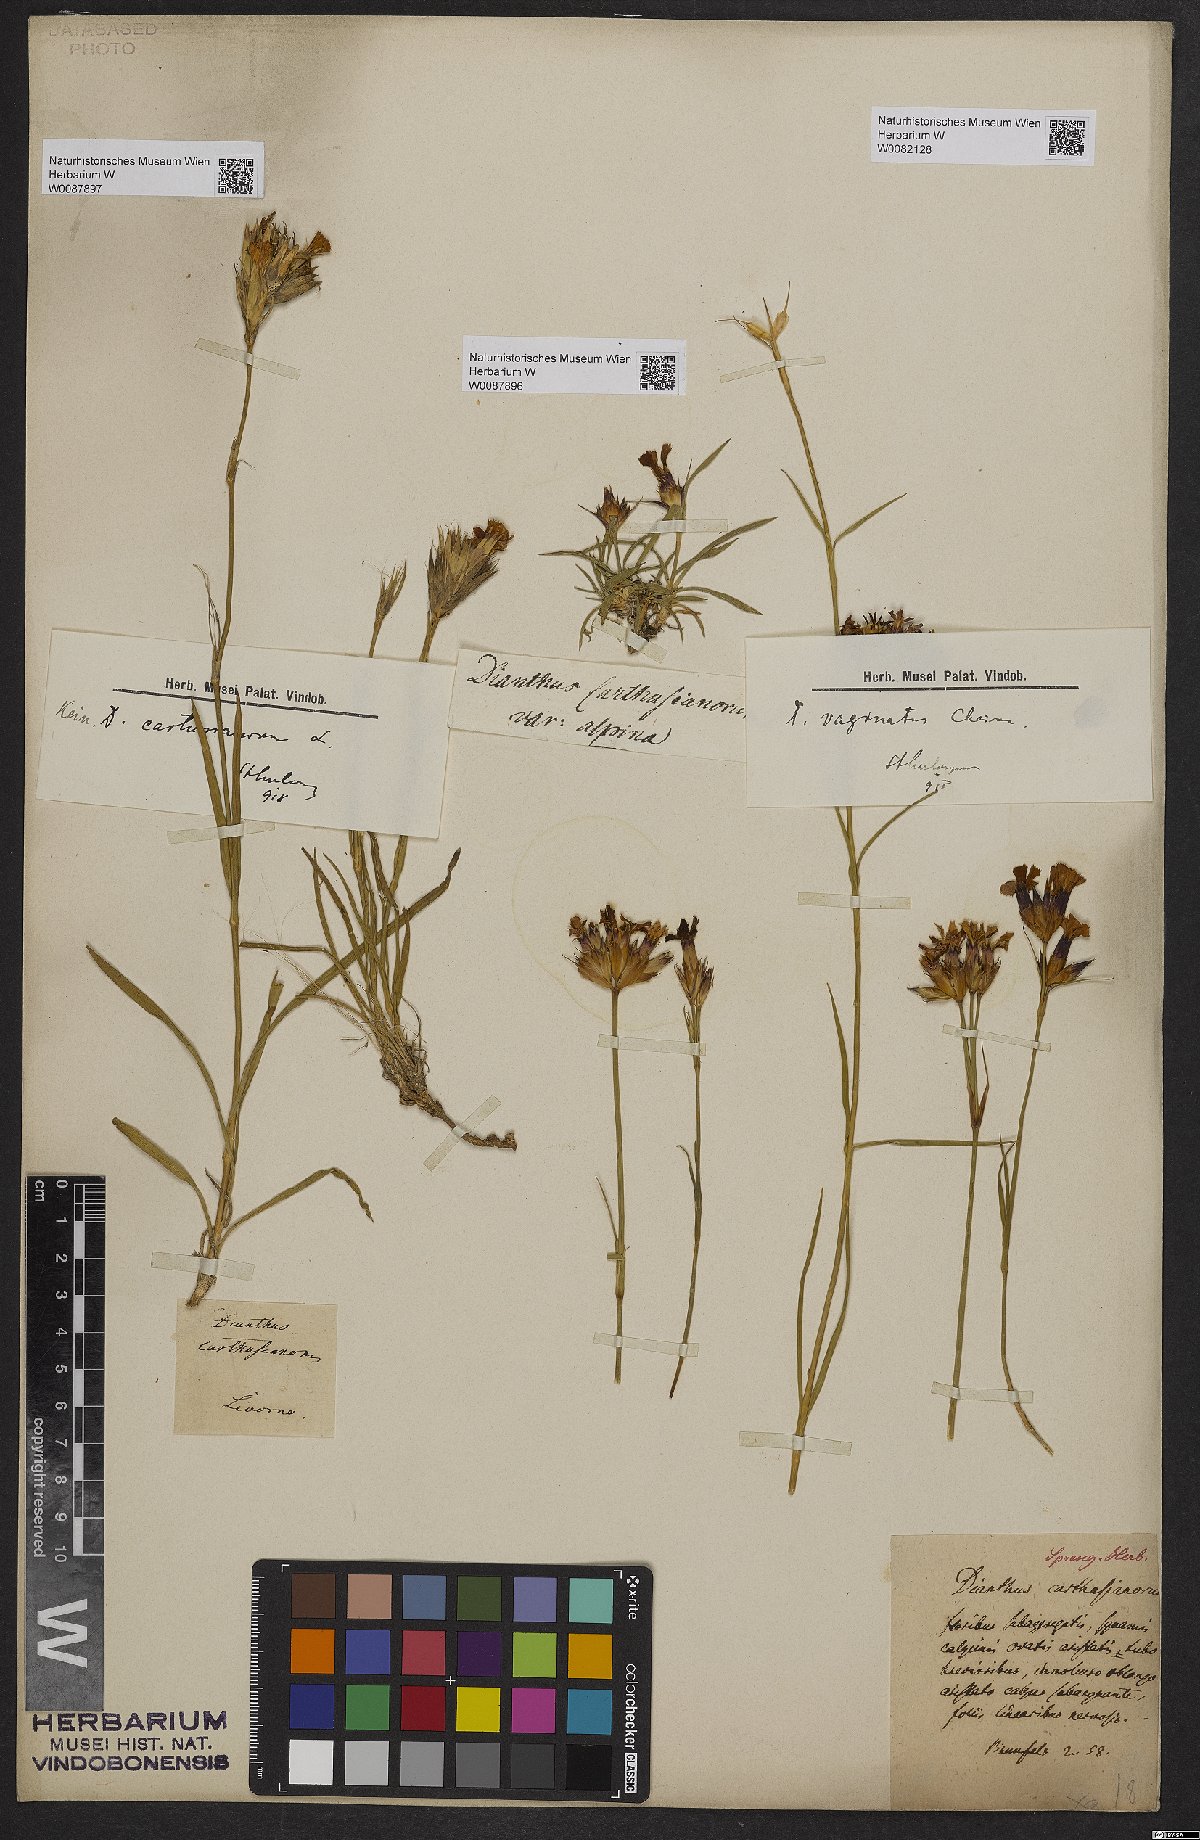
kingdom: Plantae
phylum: Tracheophyta
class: Magnoliopsida
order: Caryophyllales
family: Caryophyllaceae
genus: Dianthus
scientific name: Dianthus carthusianorum
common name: Carthusian pink
